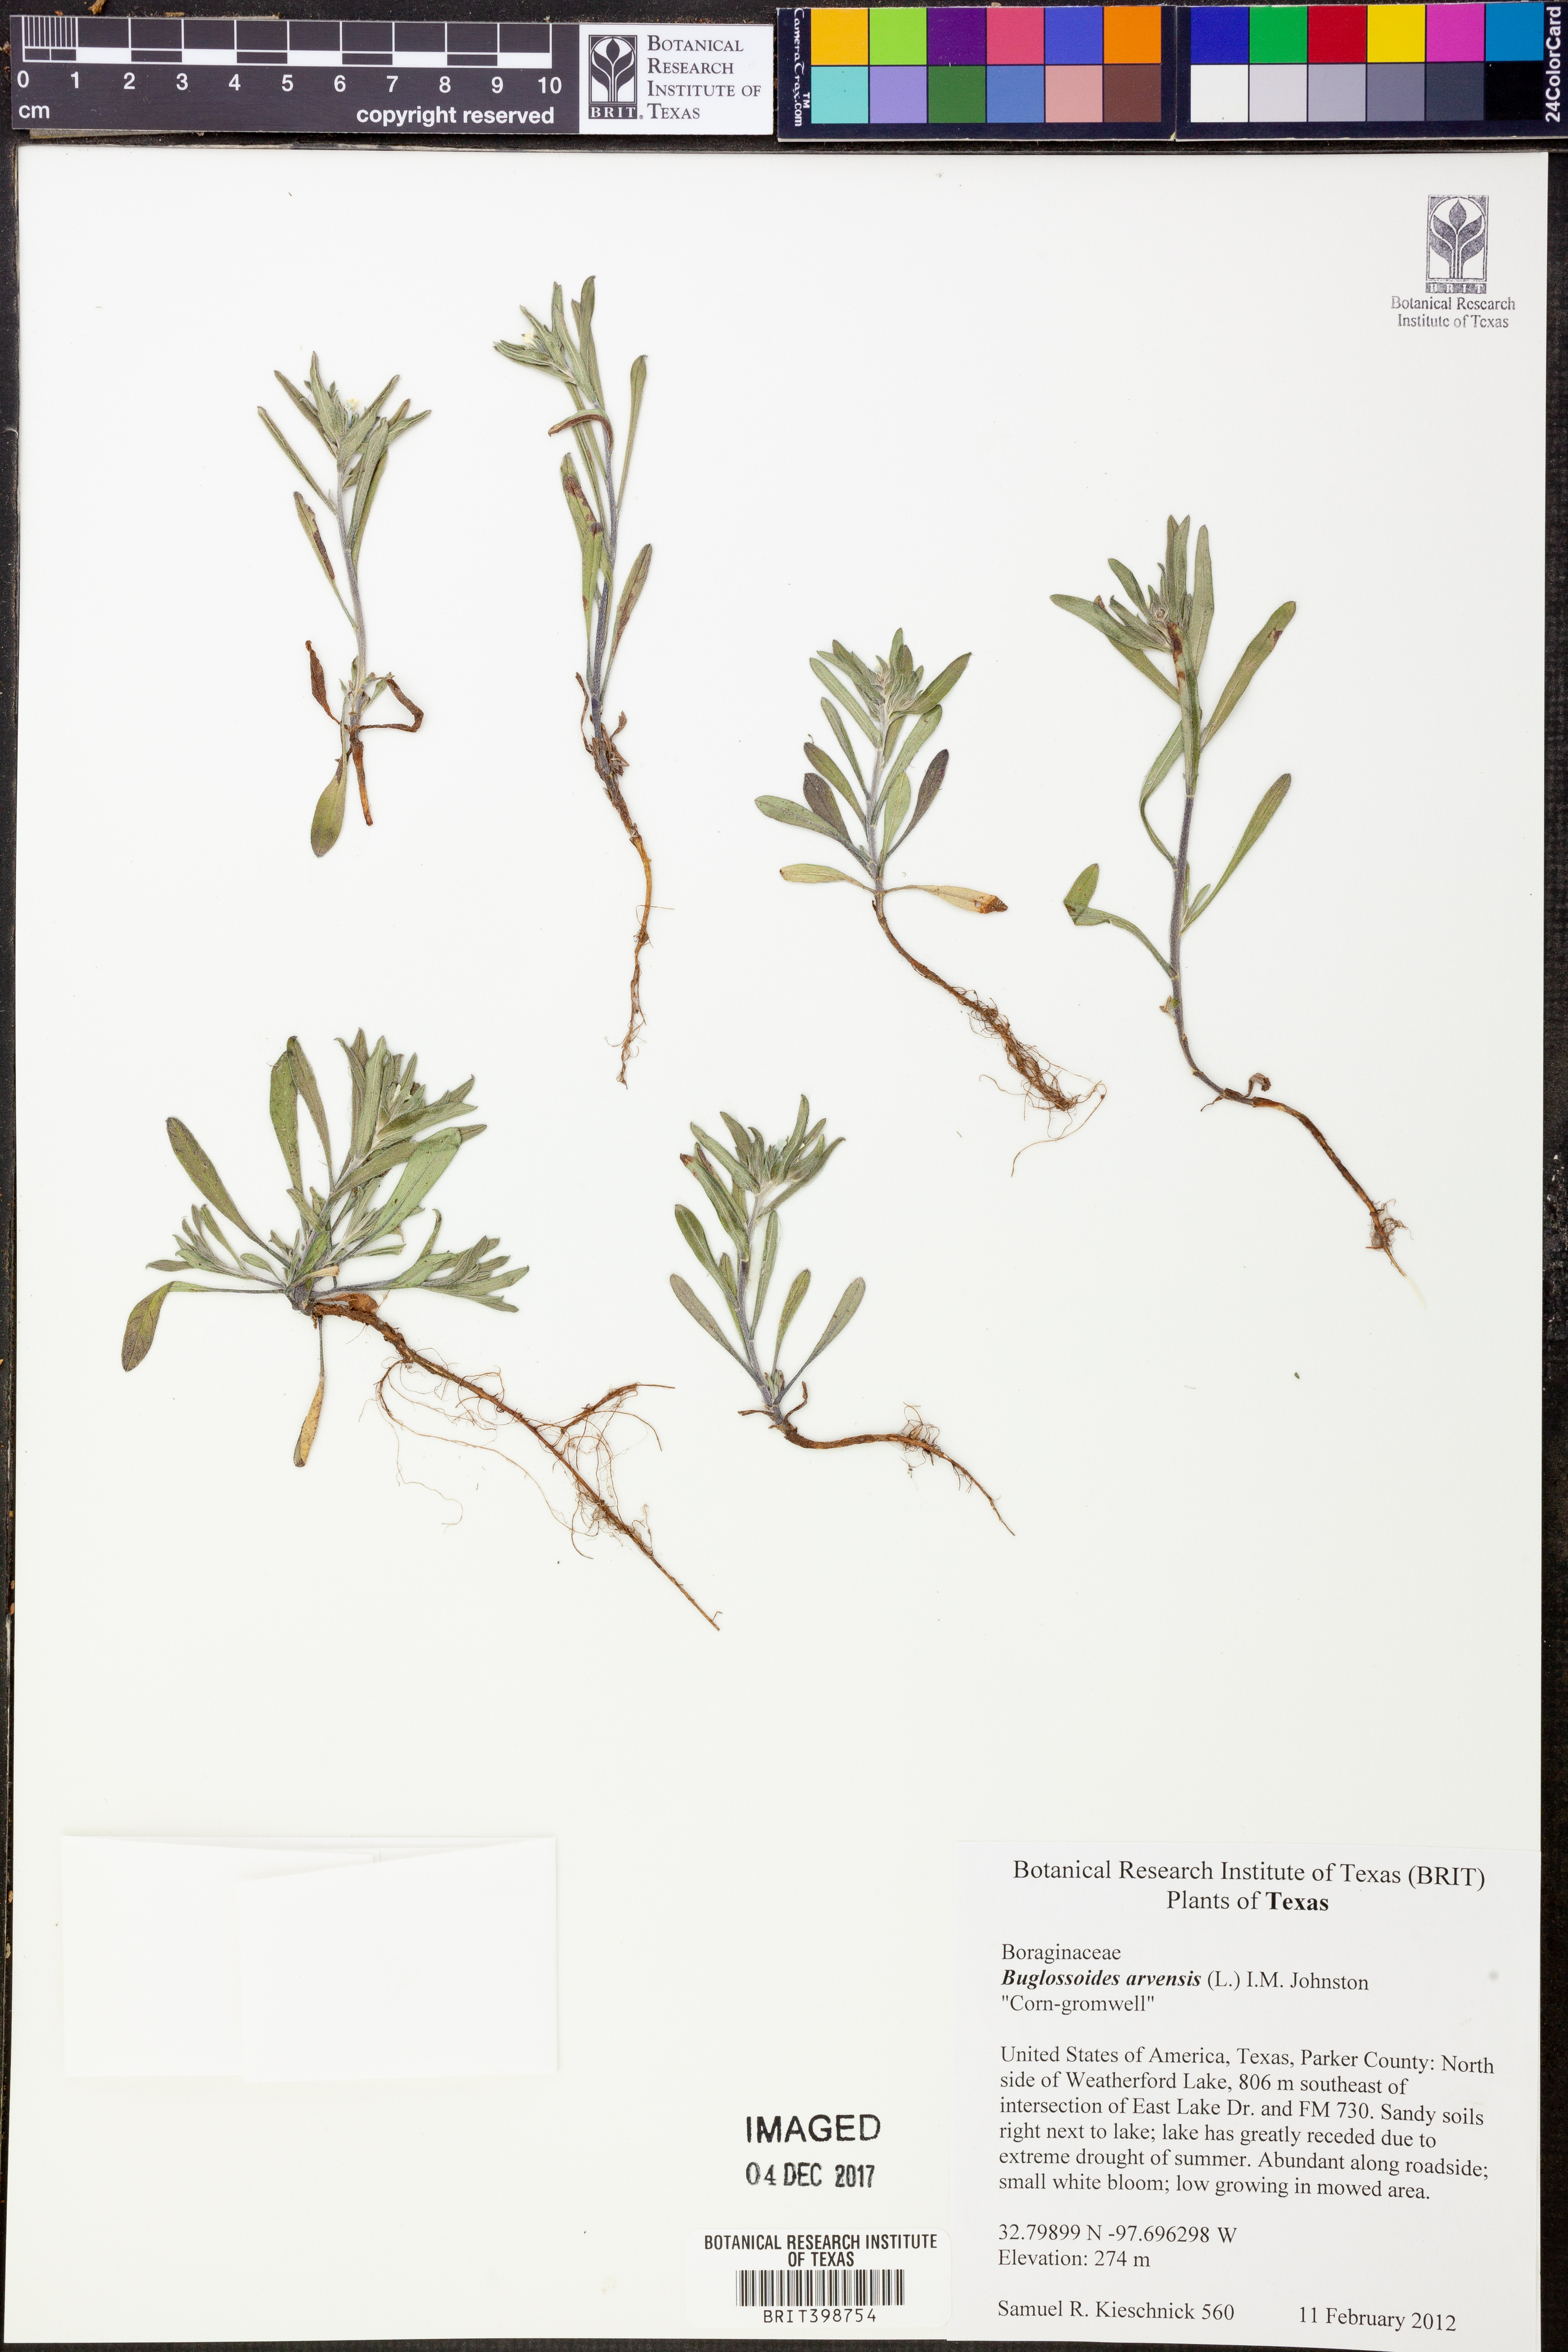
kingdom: Plantae
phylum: Tracheophyta
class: Magnoliopsida
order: Boraginales
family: Boraginaceae
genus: Buglossoides
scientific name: Buglossoides arvensis
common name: Corn gromwell
